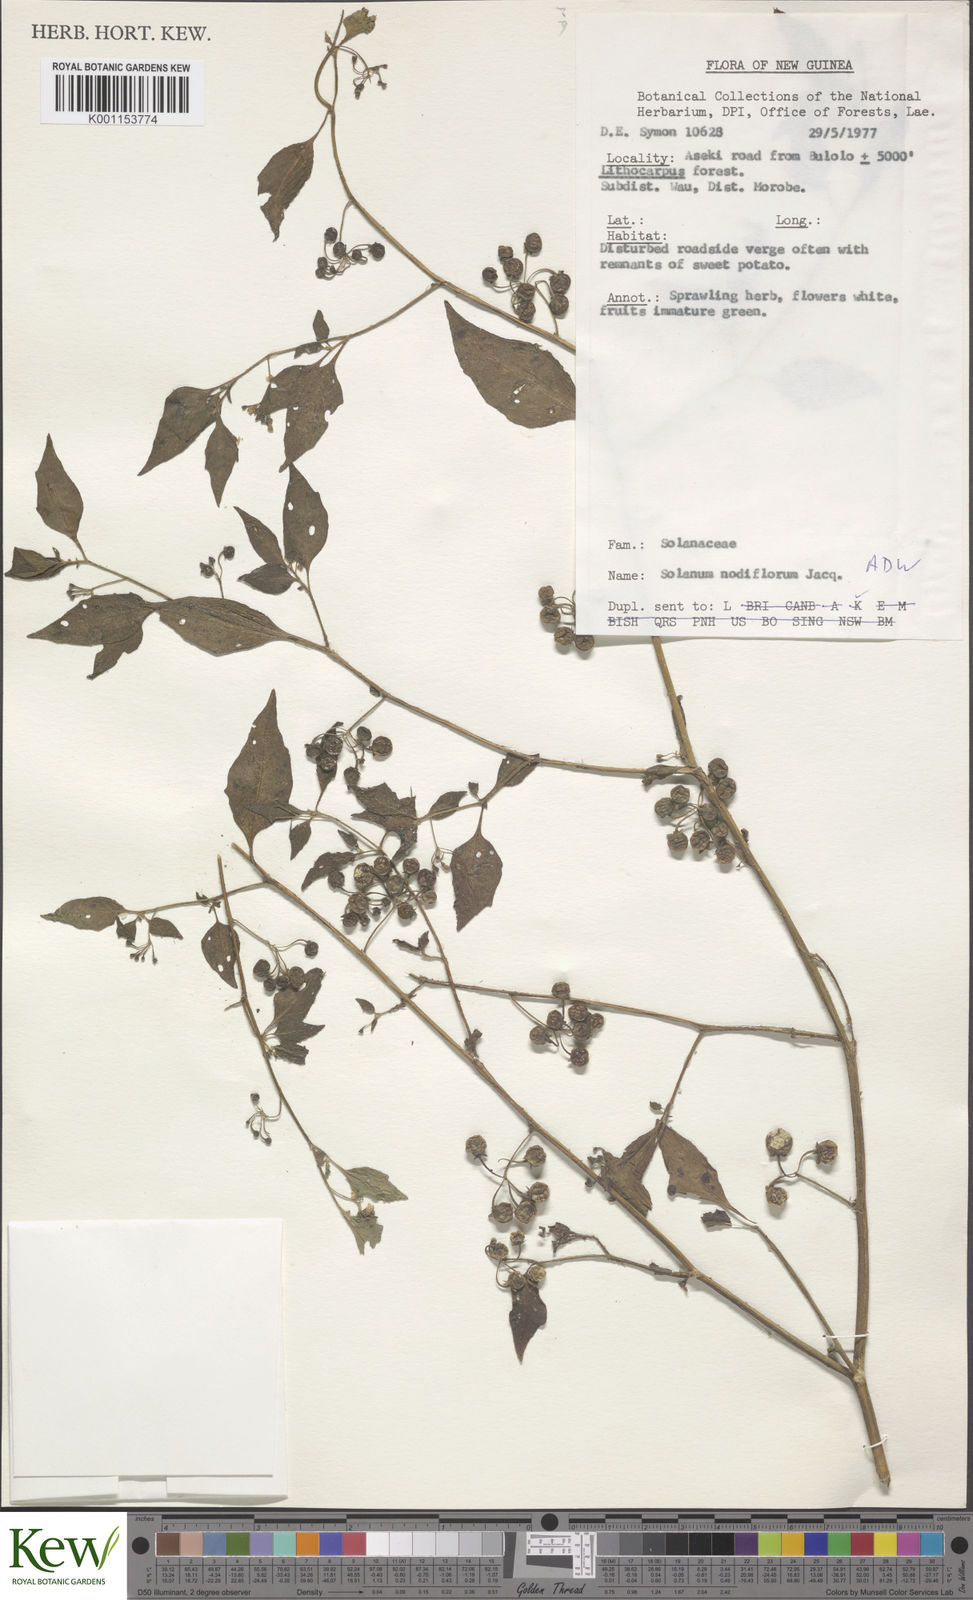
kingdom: Plantae
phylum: Tracheophyta
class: Magnoliopsida
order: Solanales
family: Solanaceae
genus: Solanum
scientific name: Solanum americanum
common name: American black nightshade
